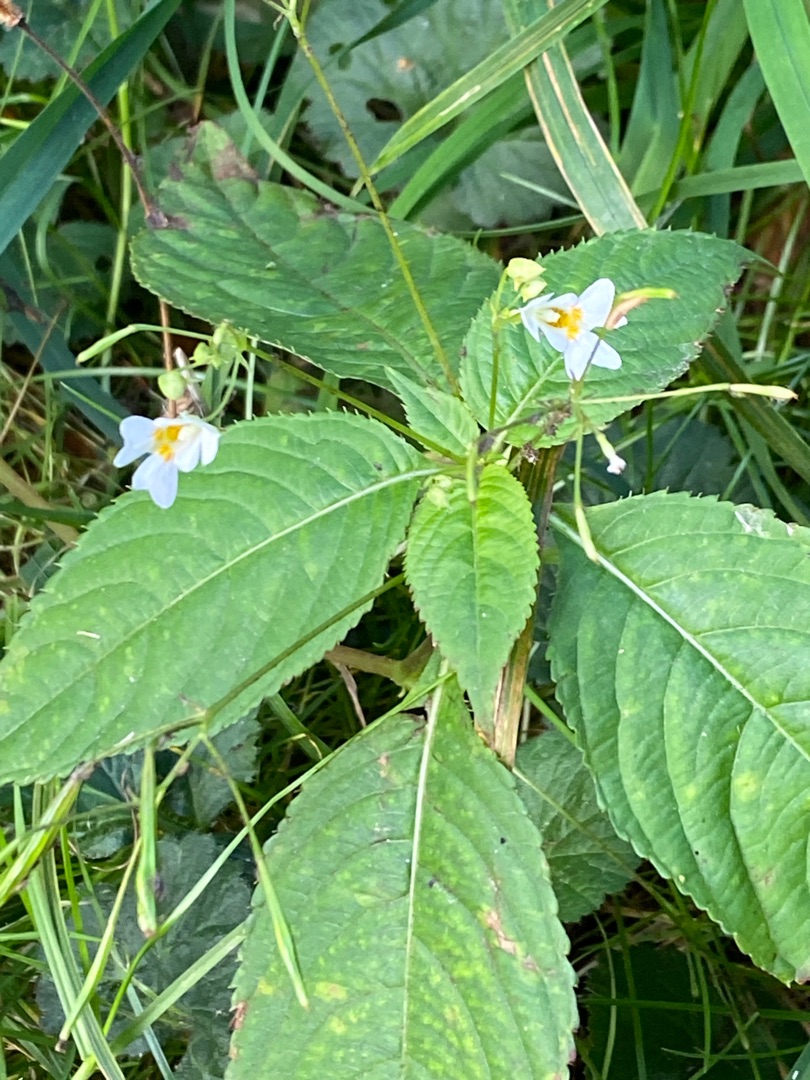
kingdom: Plantae
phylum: Tracheophyta
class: Magnoliopsida
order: Ericales
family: Balsaminaceae
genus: Impatiens
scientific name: Impatiens parviflora
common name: Småblomstret balsamin
